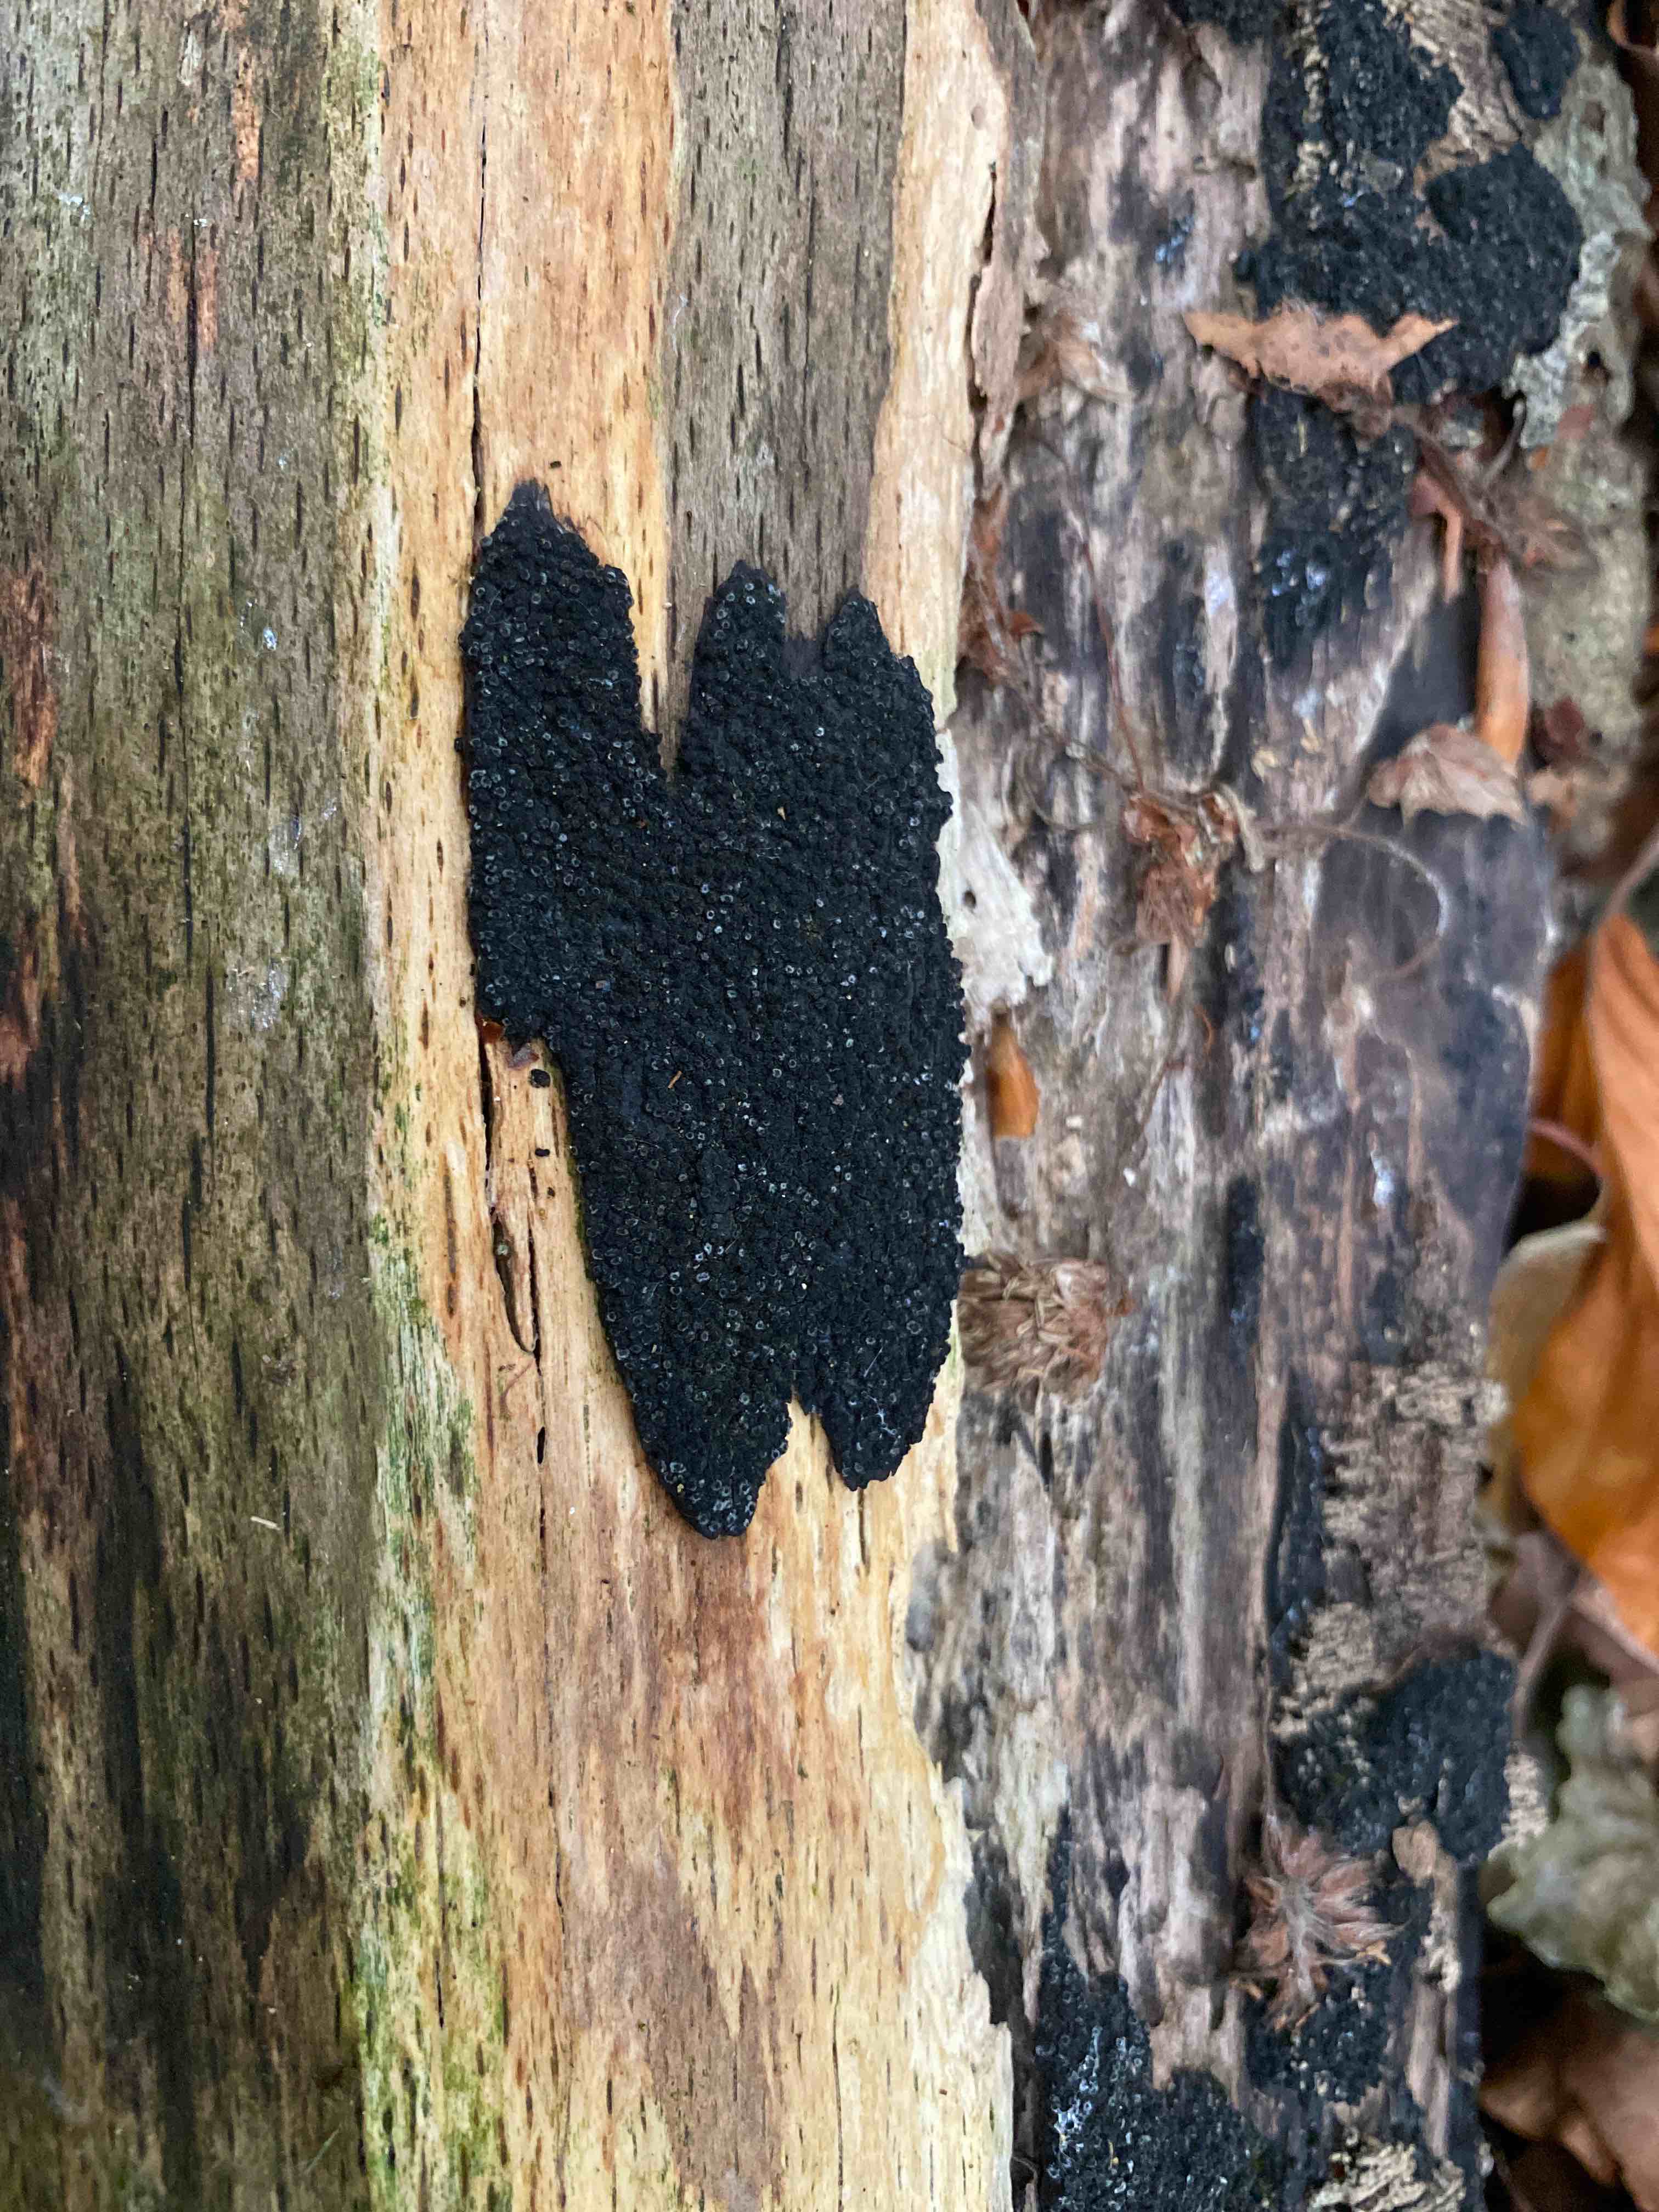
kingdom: Fungi
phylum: Ascomycota
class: Sordariomycetes
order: Xylariales
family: Diatrypaceae
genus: Eutypa
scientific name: Eutypa spinosa
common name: grov kulskorpe
